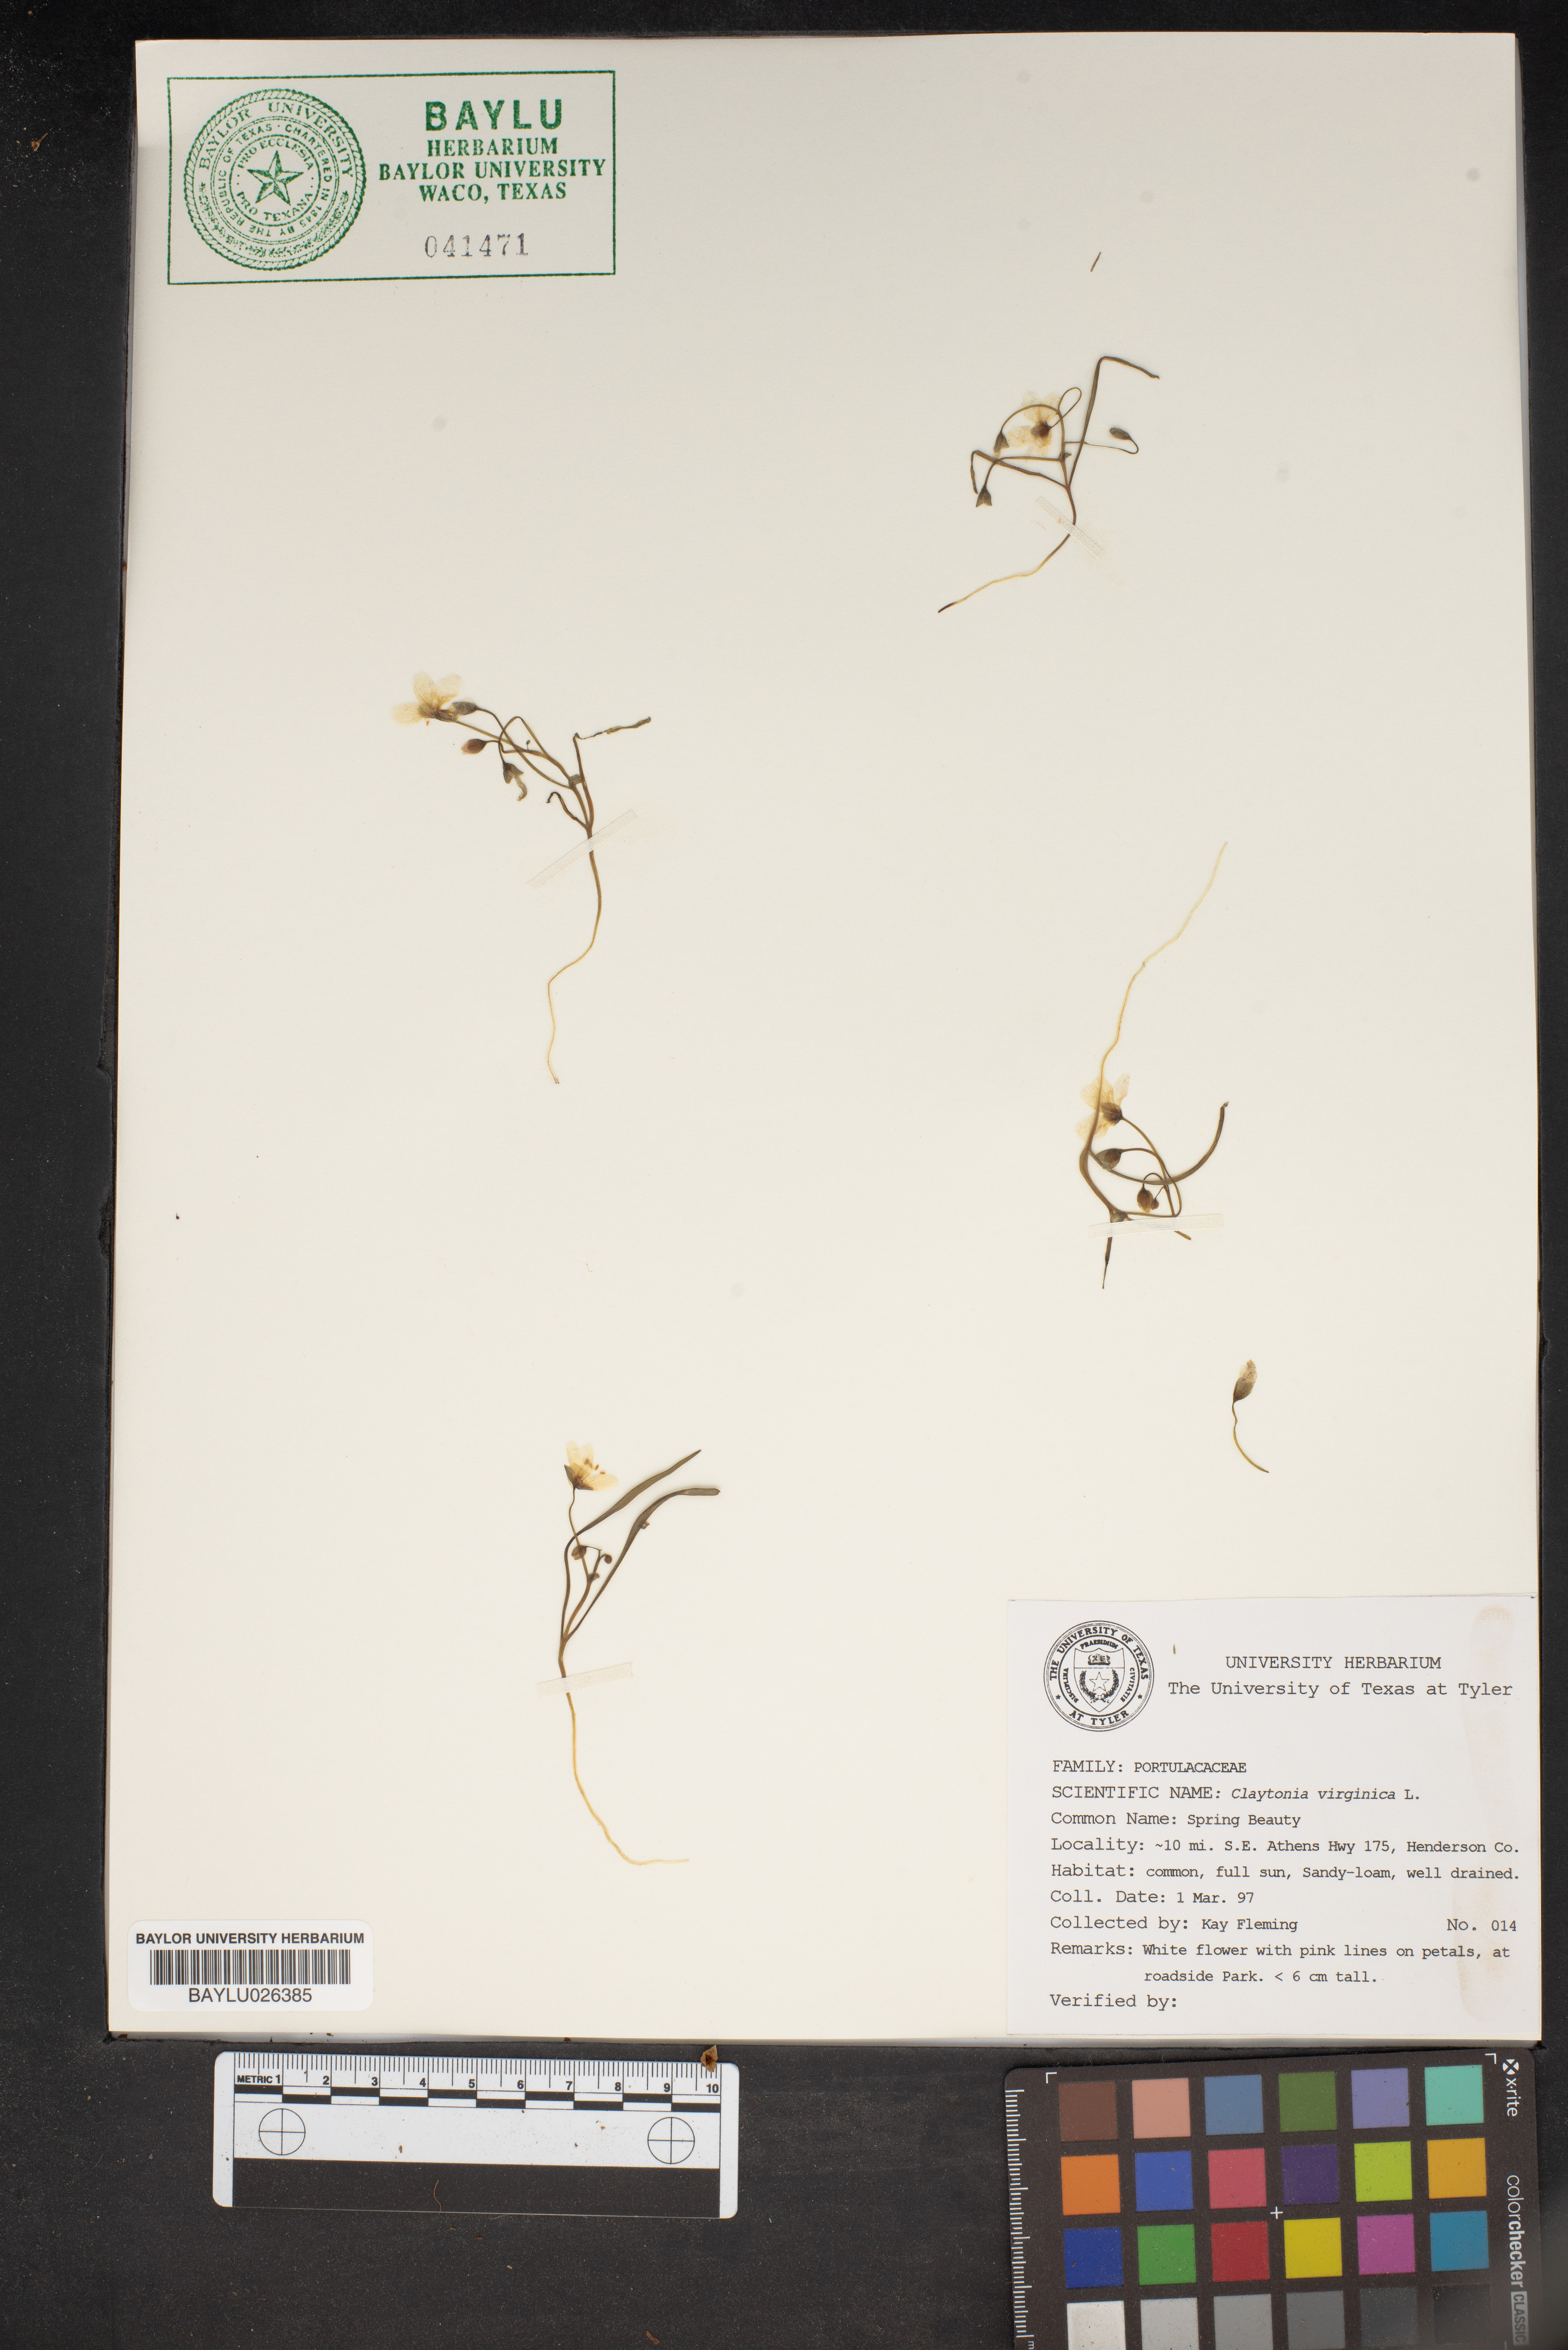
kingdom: Plantae
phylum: Tracheophyta
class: Magnoliopsida
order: Caryophyllales
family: Montiaceae
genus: Claytonia
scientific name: Claytonia virginica
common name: Virginia springbeauty
